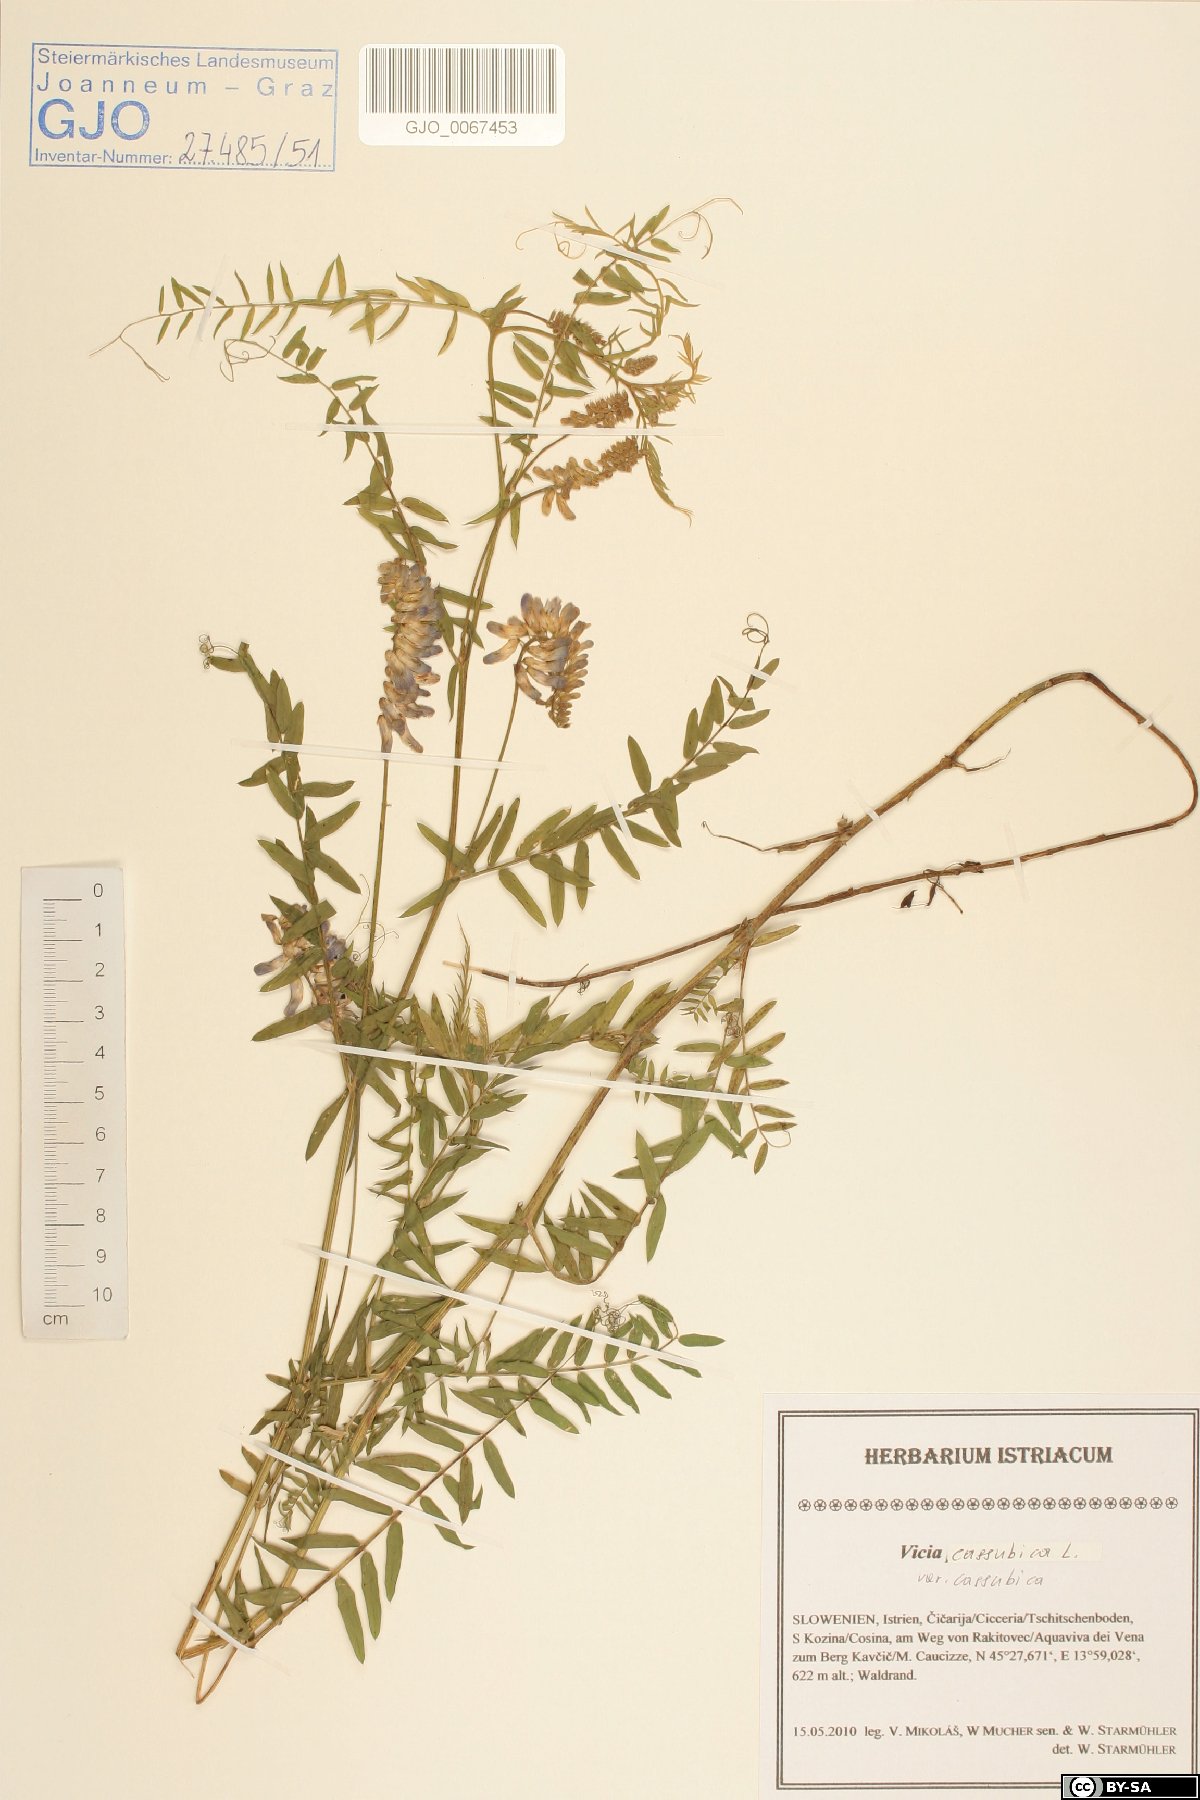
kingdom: Plantae
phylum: Tracheophyta
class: Magnoliopsida
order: Fabales
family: Fabaceae
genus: Vicia
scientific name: Vicia cassubica
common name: Danzig vetch
